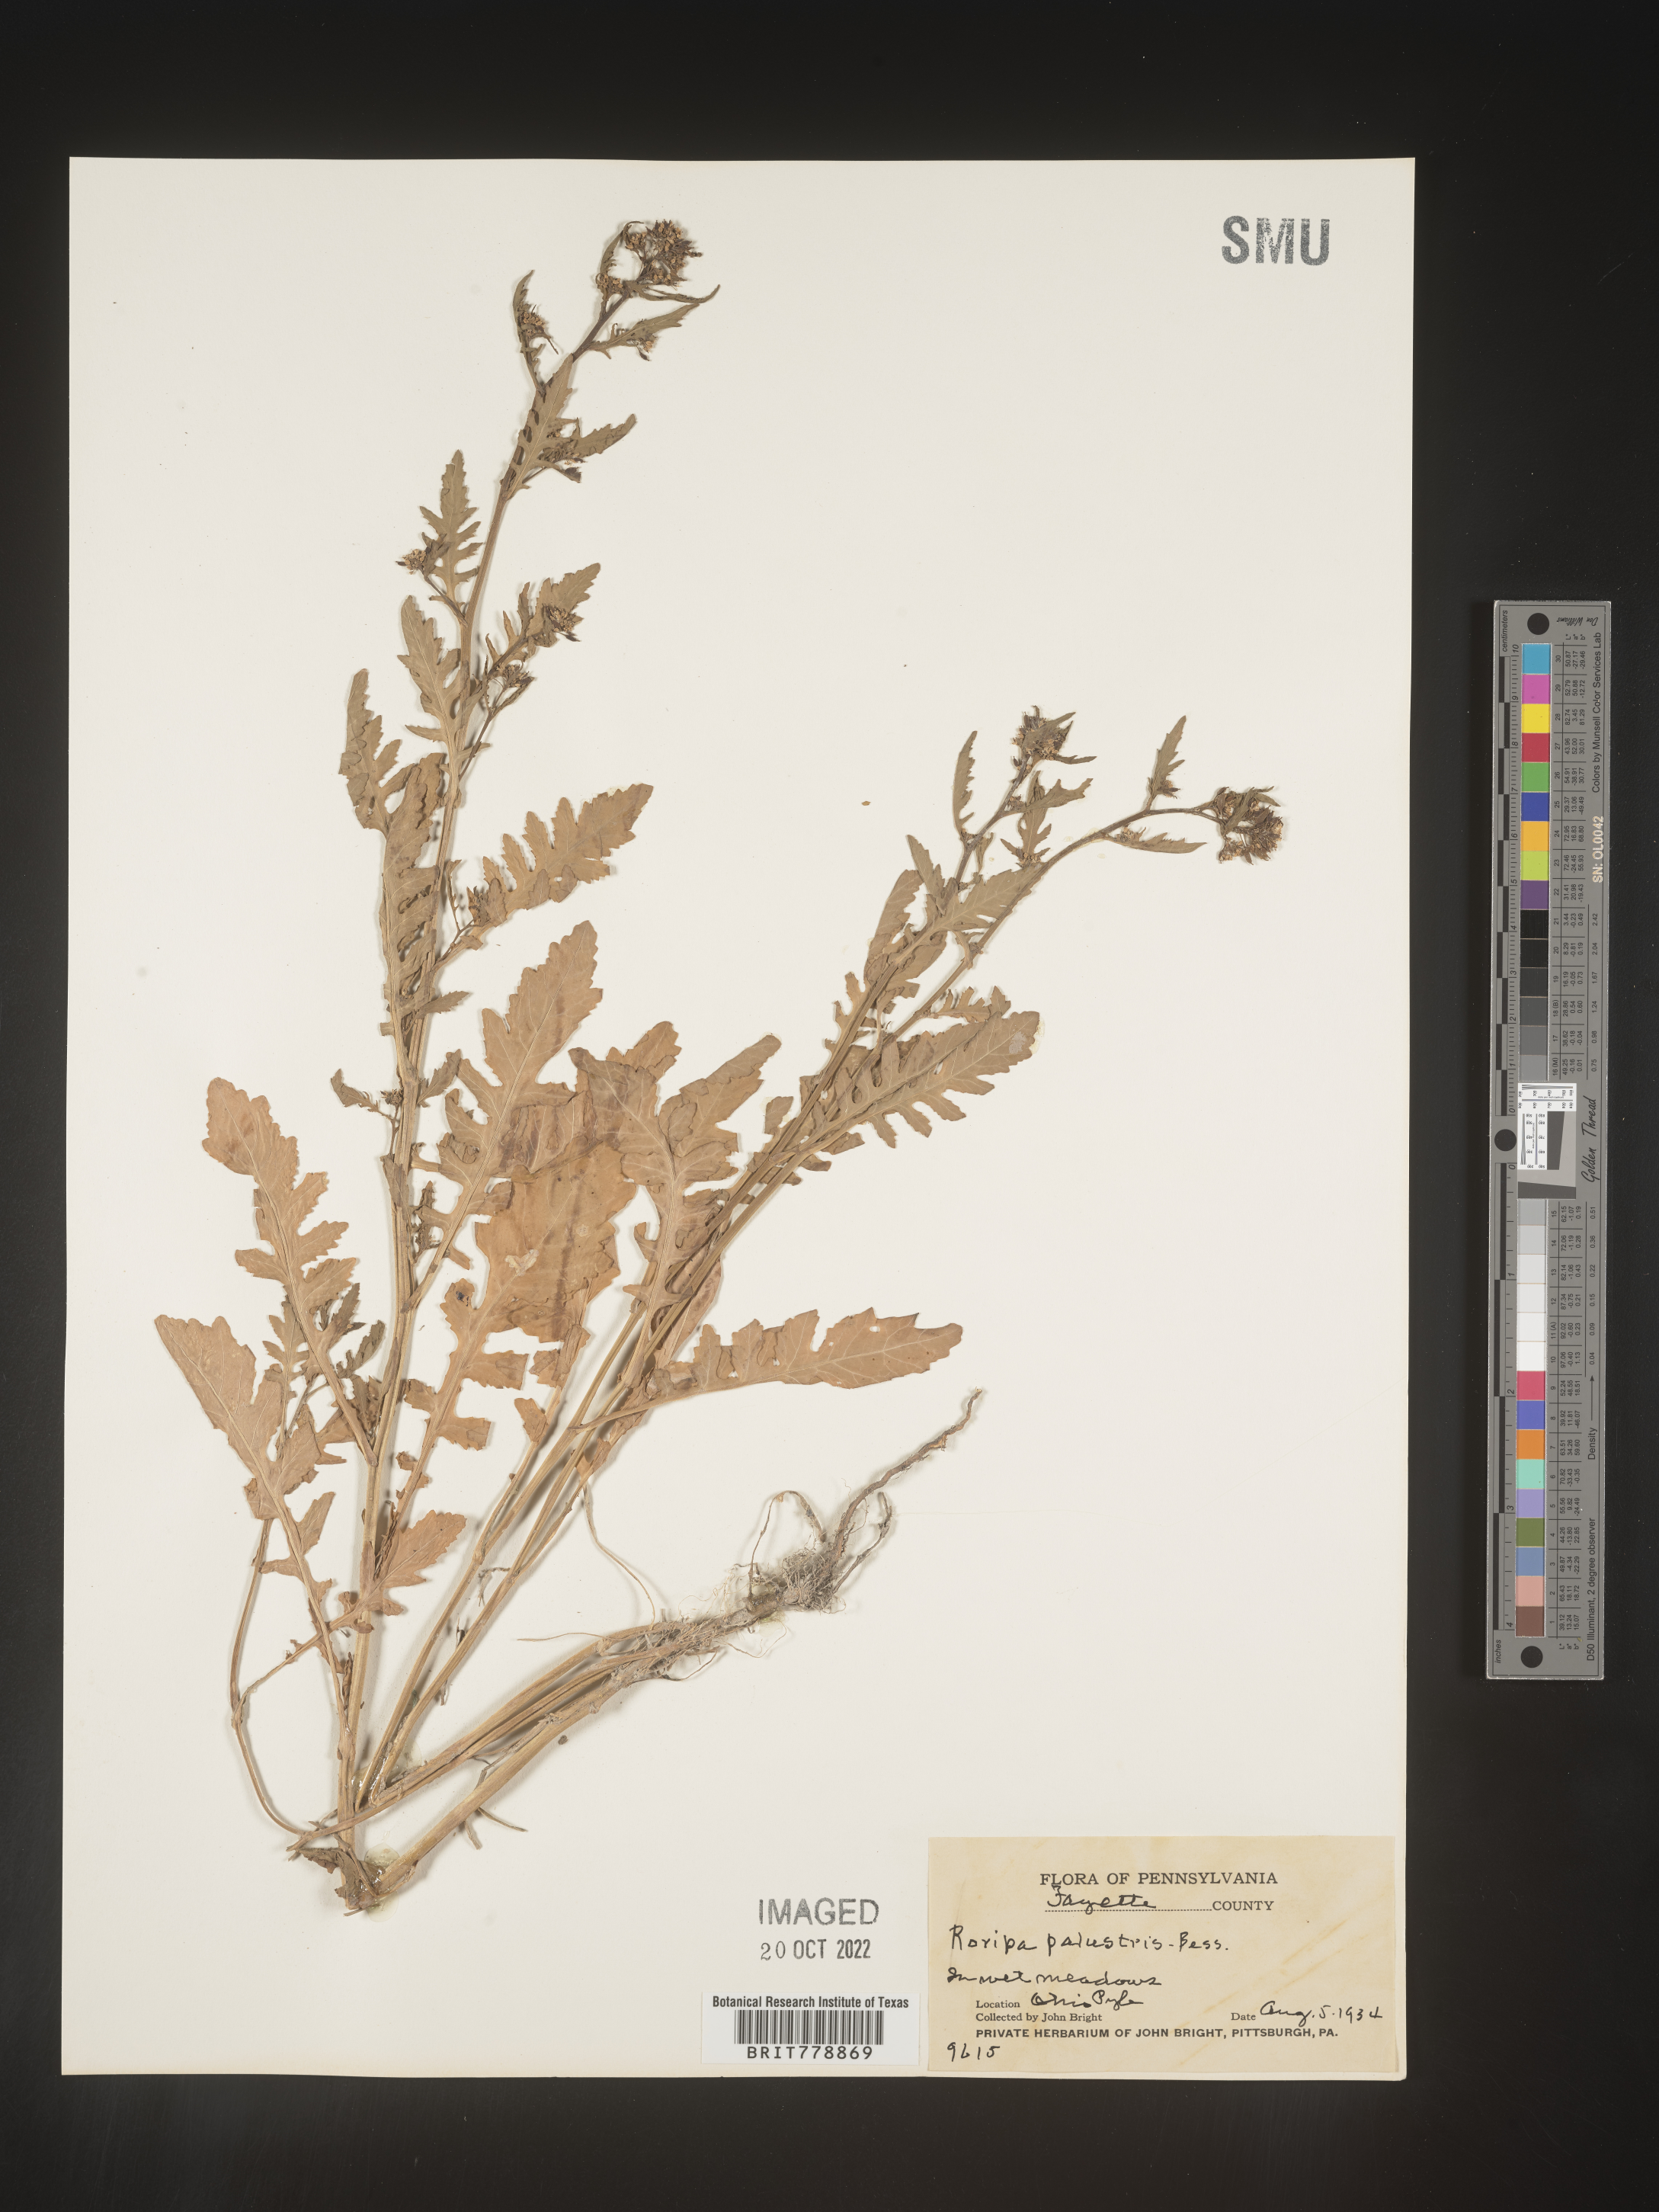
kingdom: Plantae
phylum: Tracheophyta
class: Magnoliopsida
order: Brassicales
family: Brassicaceae
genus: Rorippa
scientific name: Rorippa palustris
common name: Marsh yellow-cress
